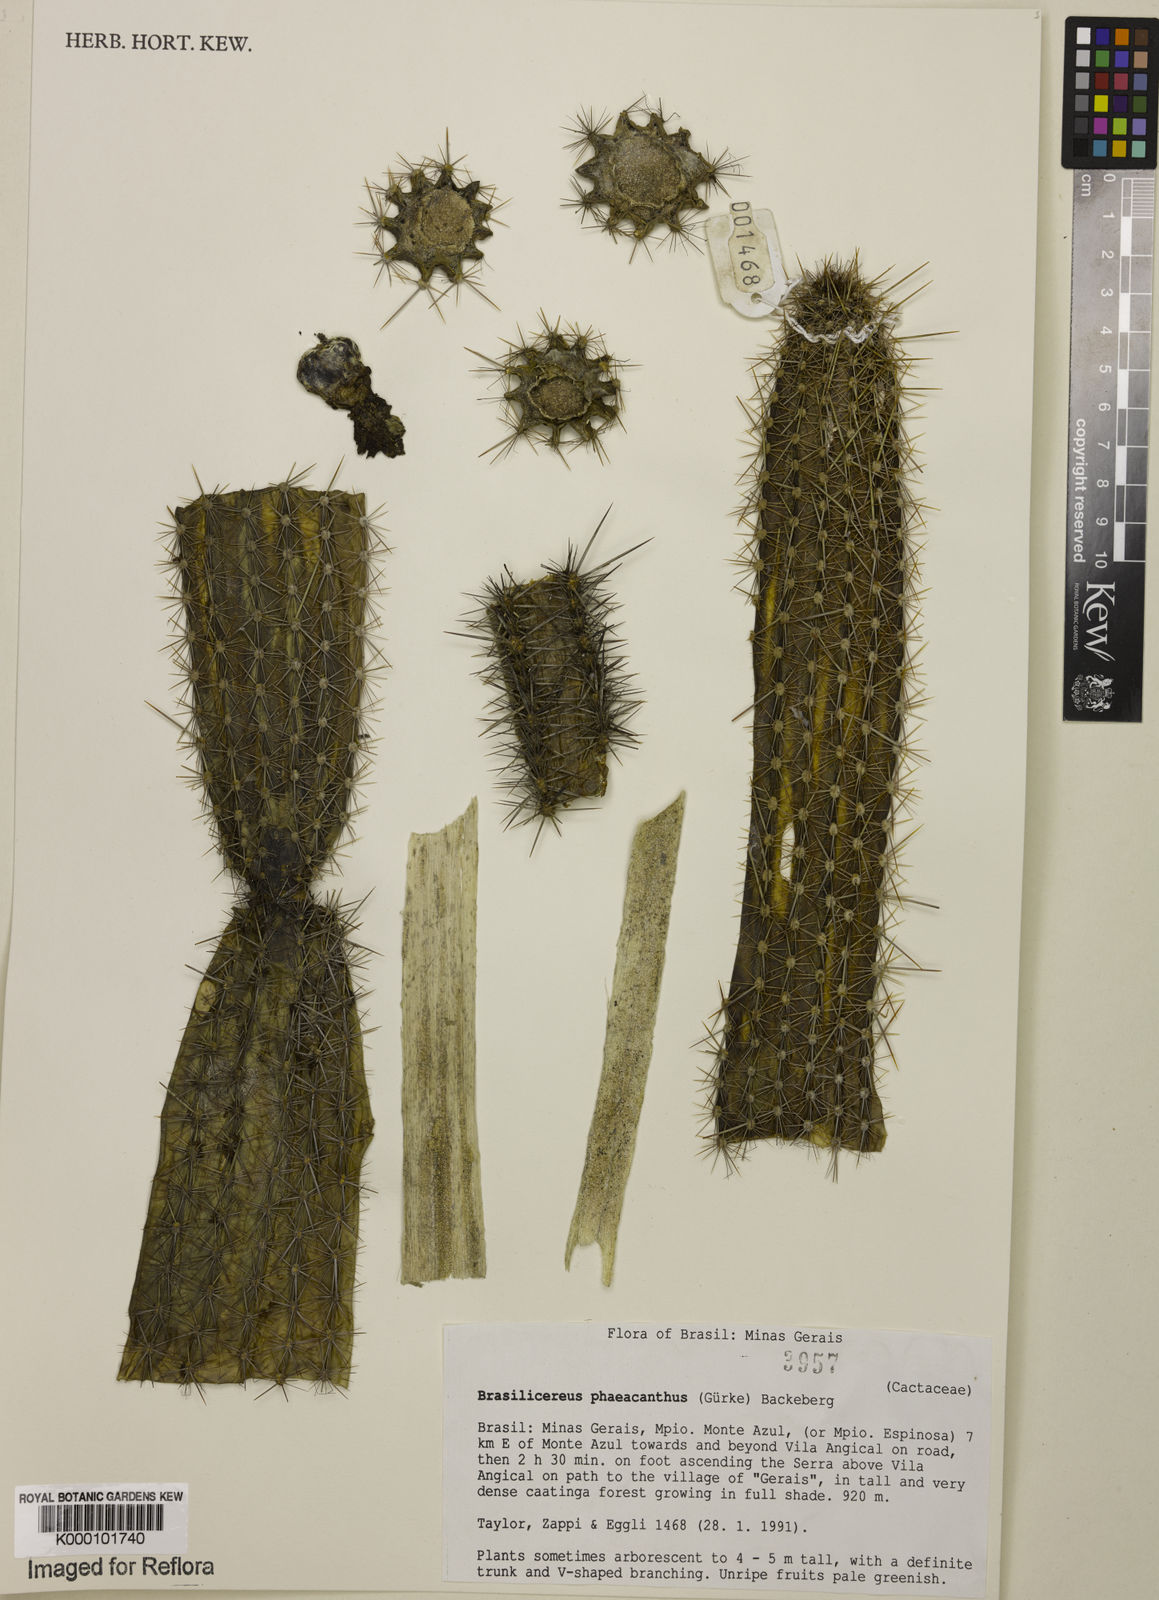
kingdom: Plantae
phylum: Tracheophyta
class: Magnoliopsida
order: Caryophyllales
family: Cactaceae
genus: Brasilicereus
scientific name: Brasilicereus phaeacanthus
